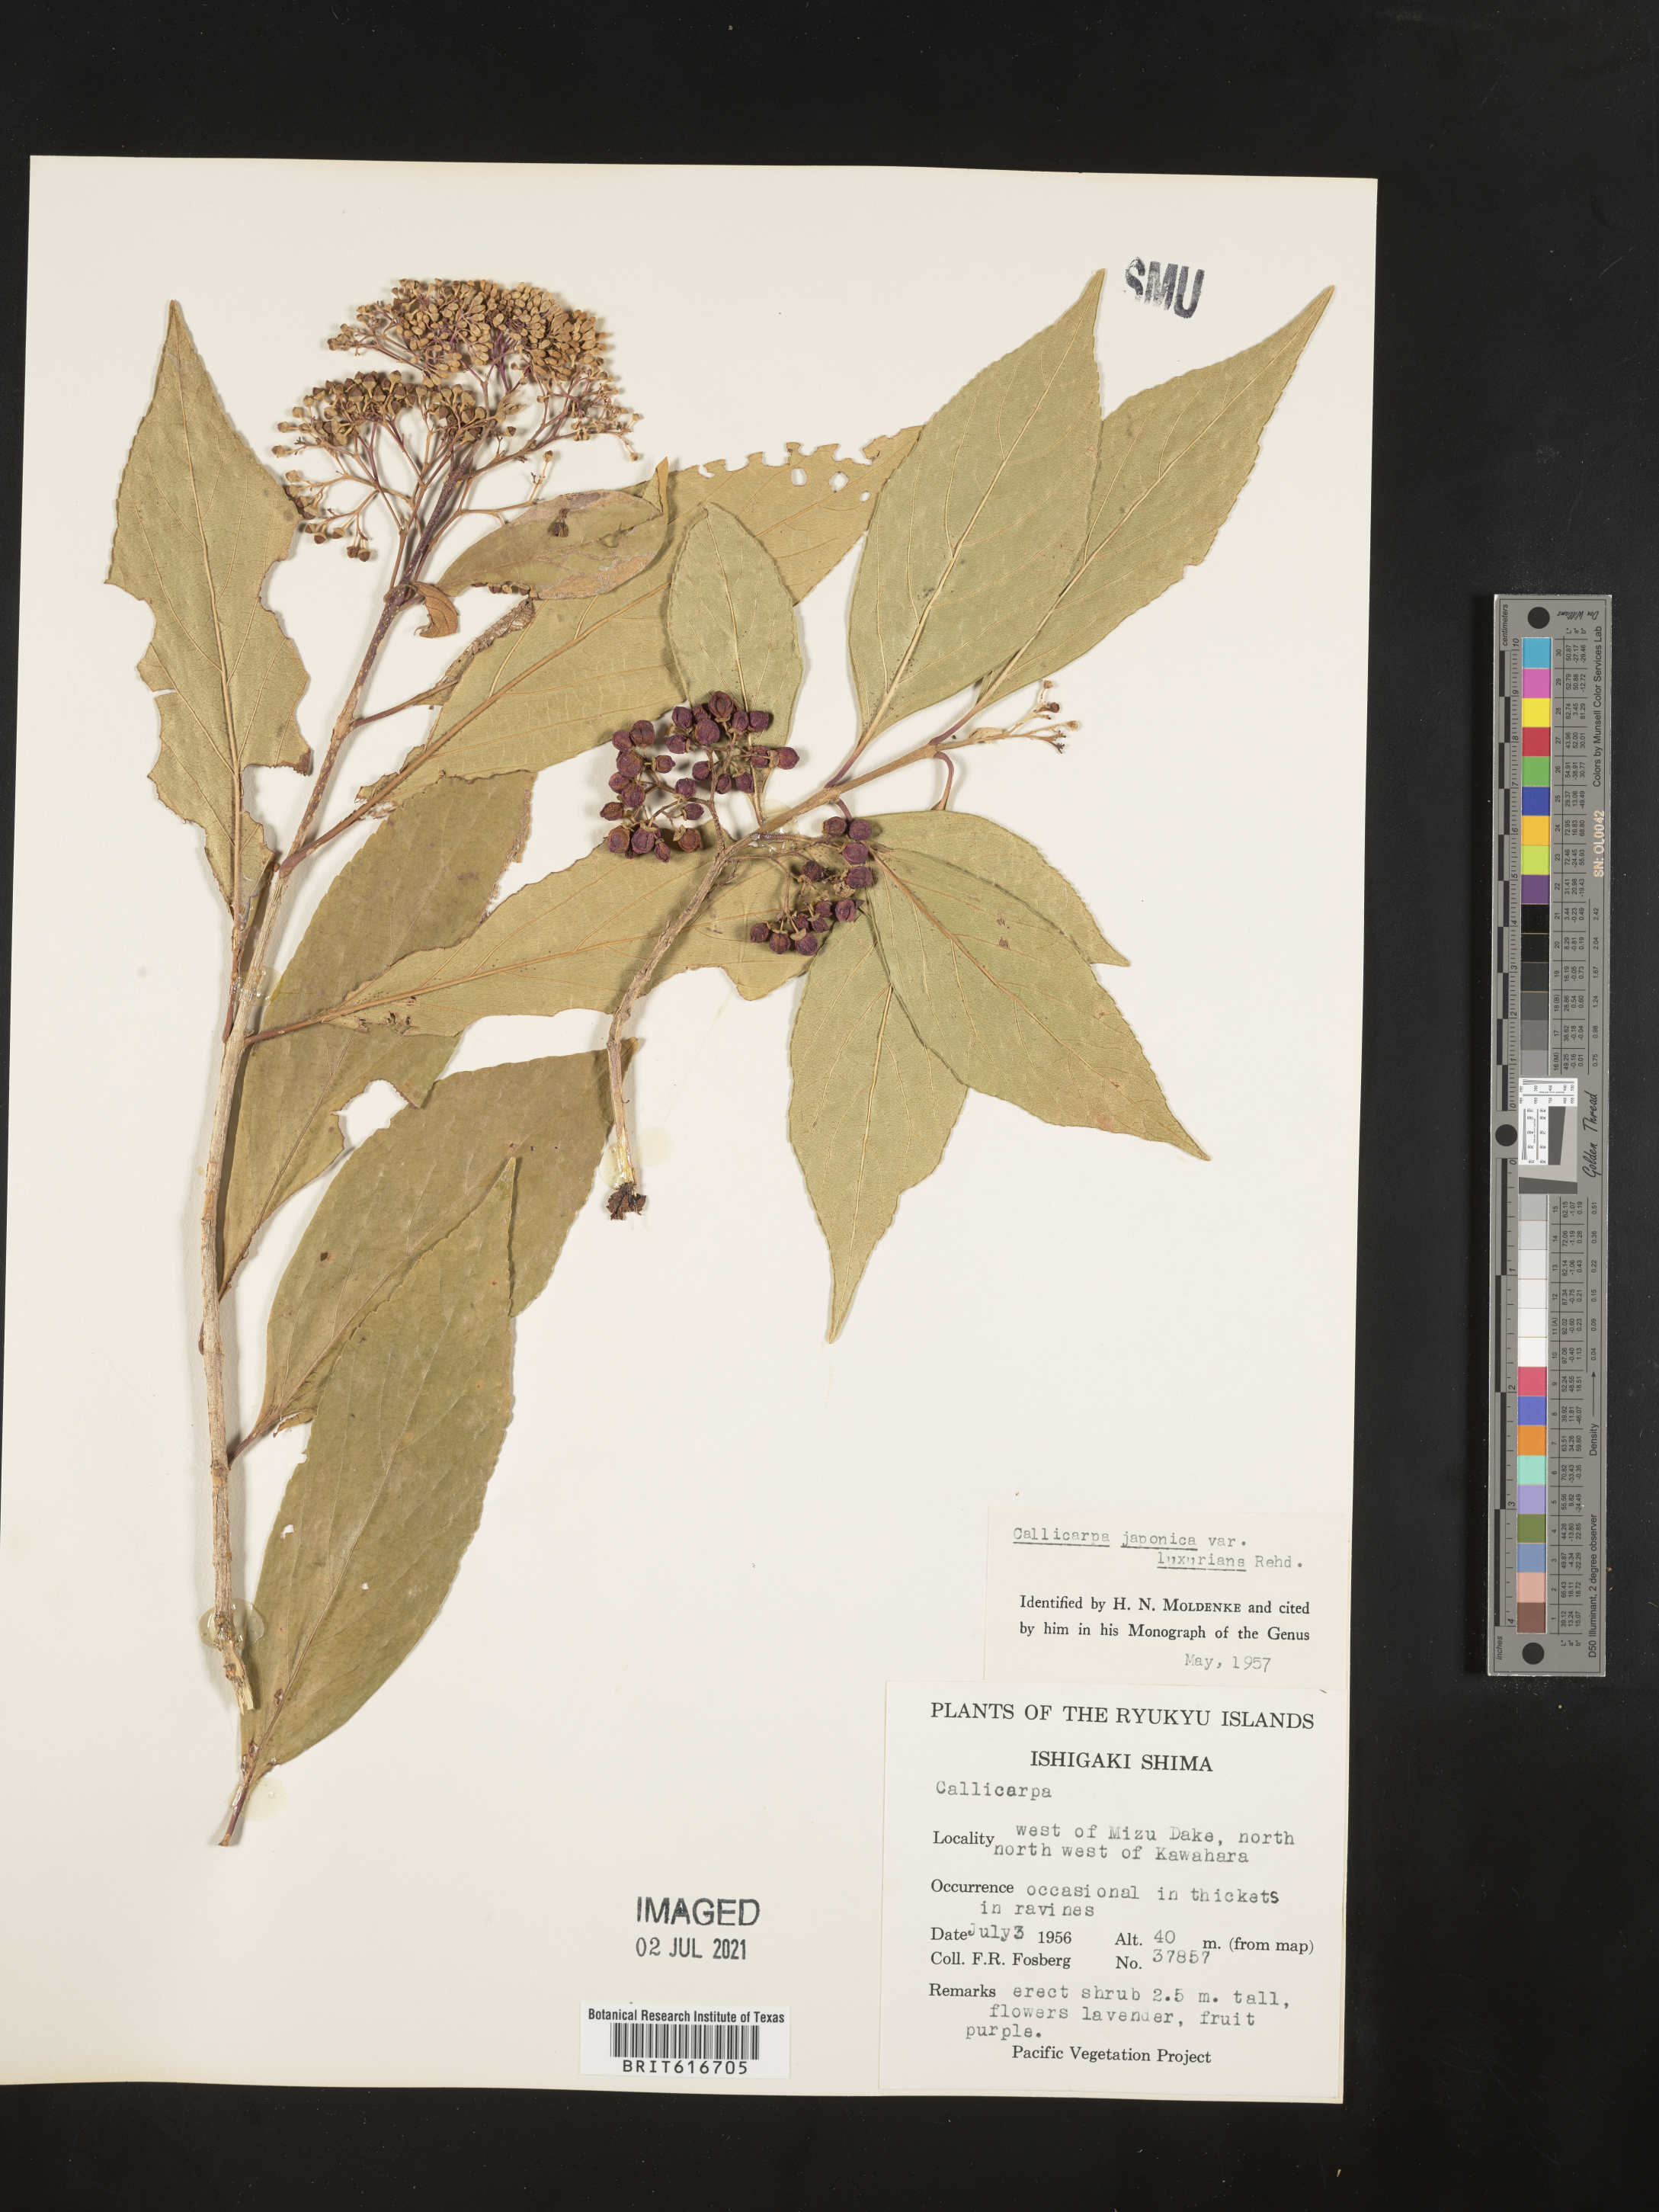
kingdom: Plantae
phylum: Tracheophyta
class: Magnoliopsida
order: Lamiales
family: Lamiaceae
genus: Callicarpa
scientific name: Callicarpa japonica
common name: Japanese beauty-berry
